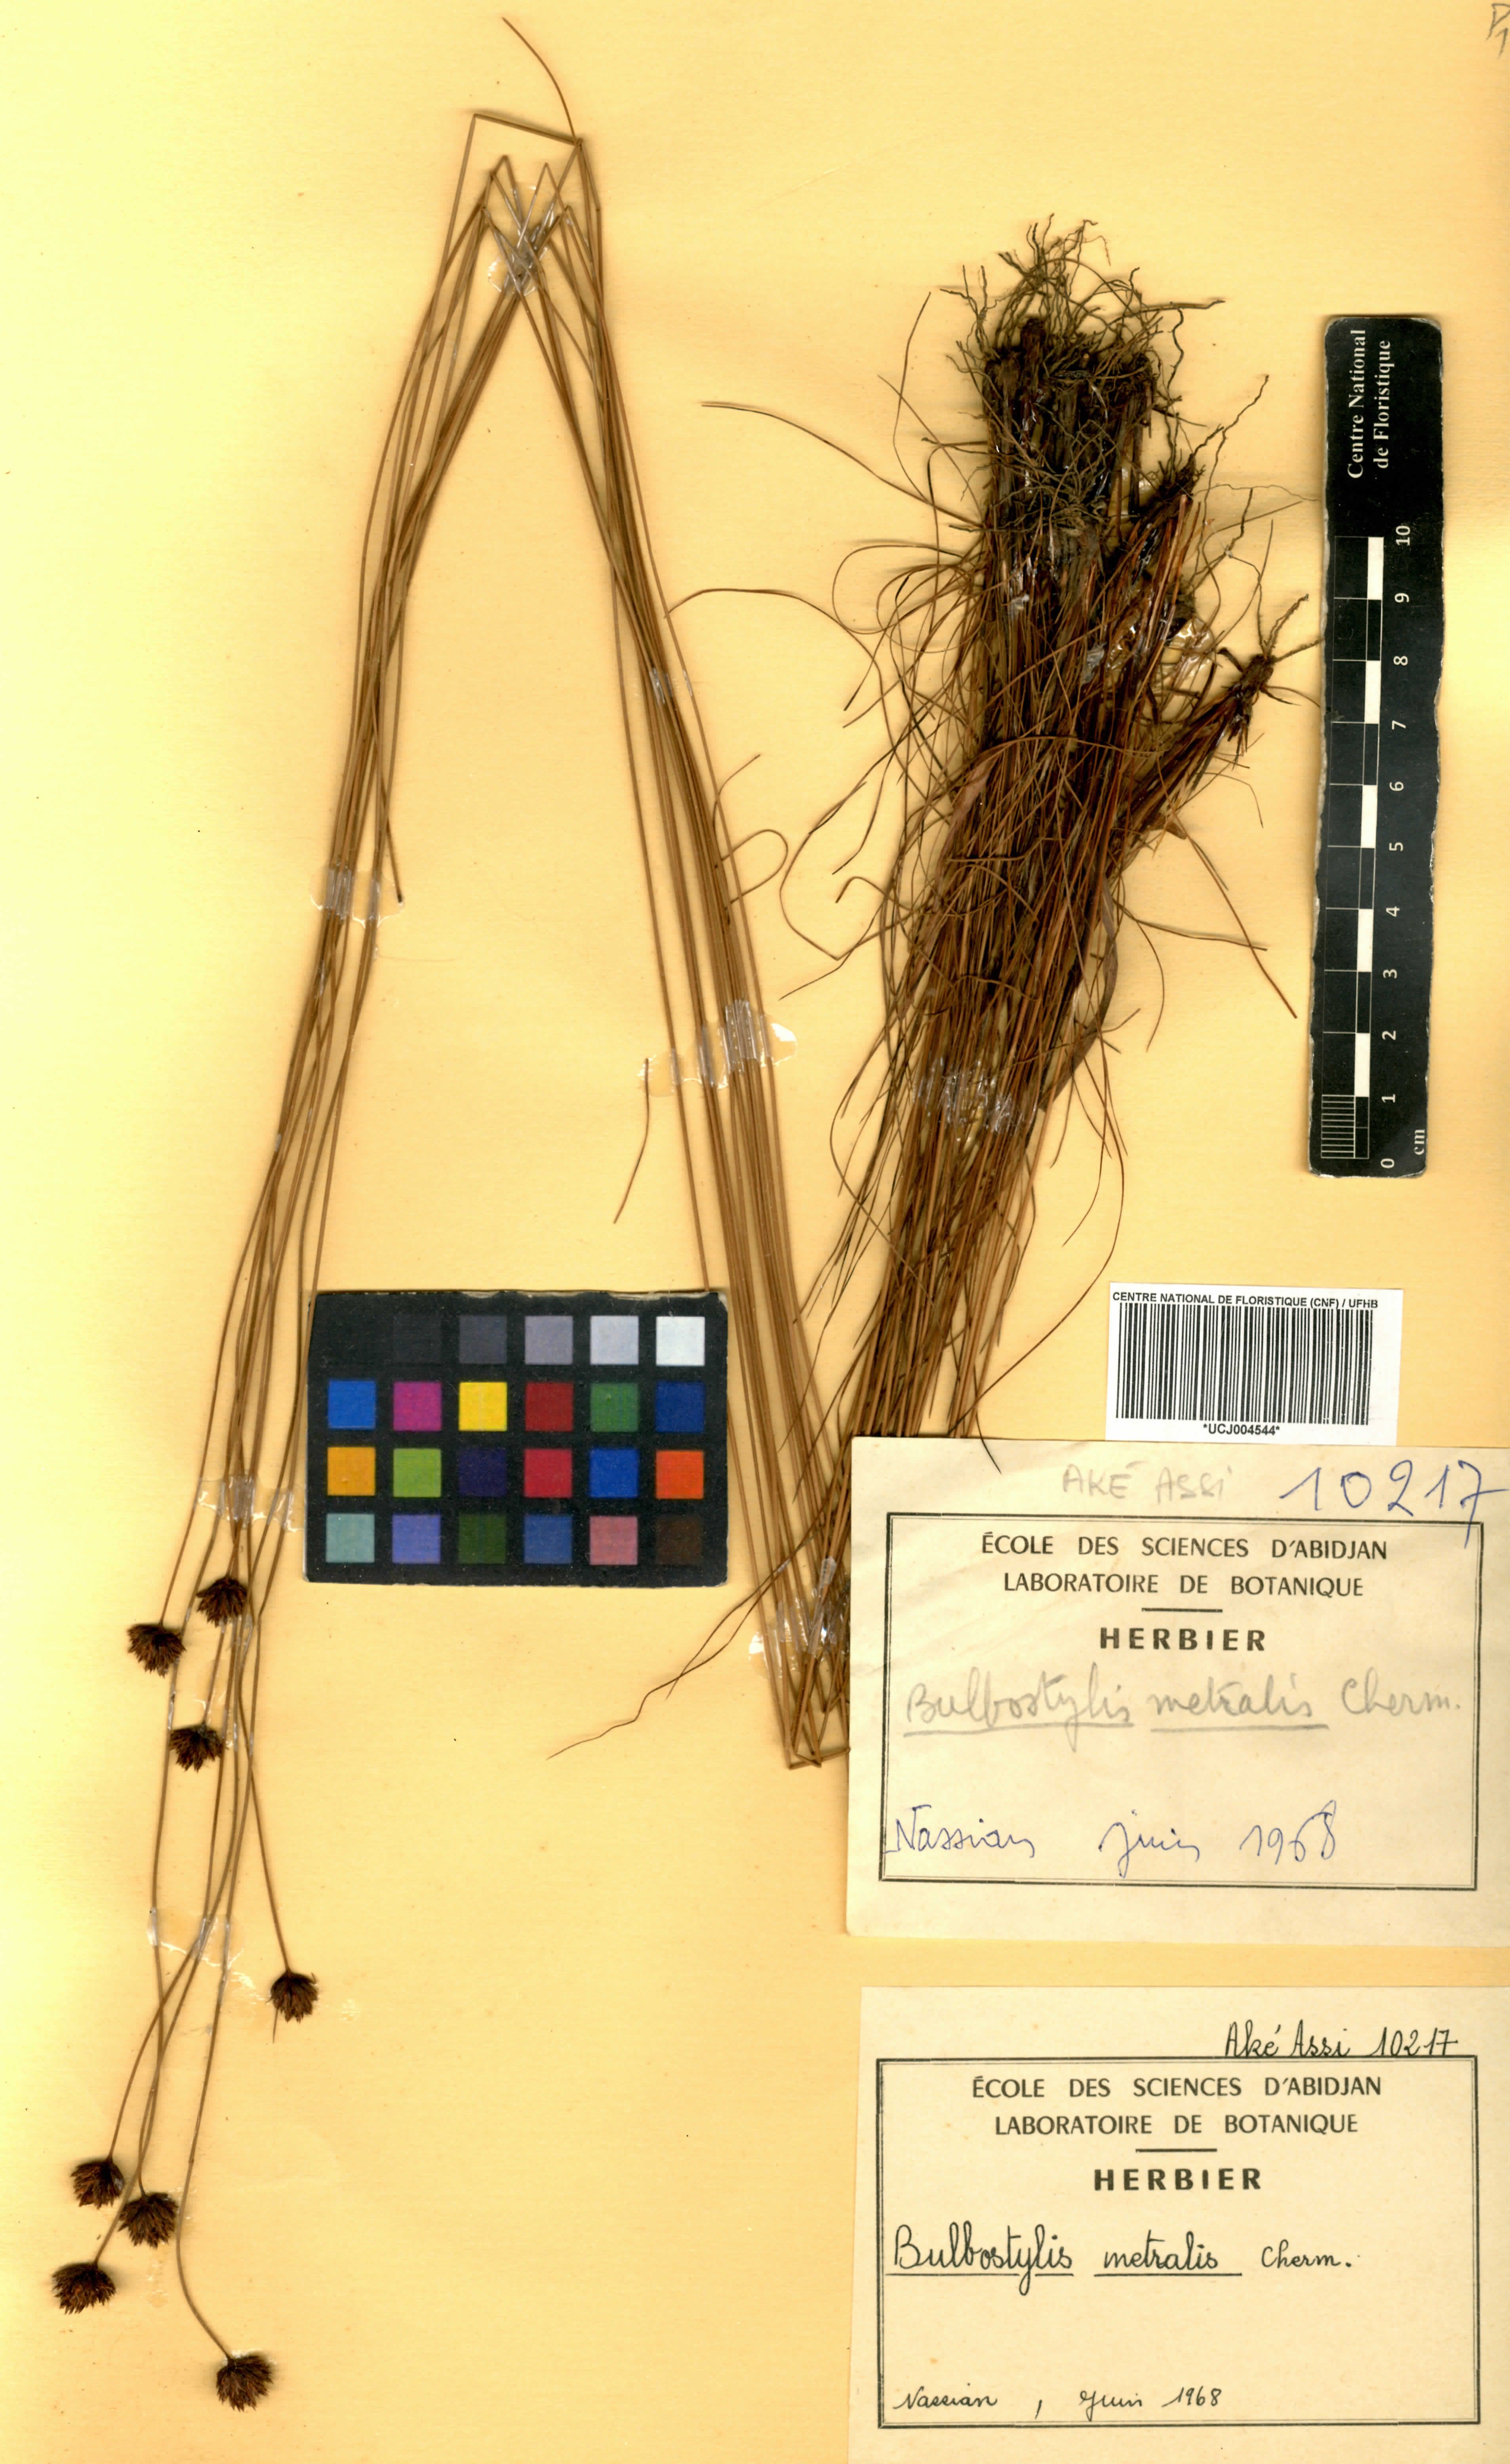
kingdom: Plantae
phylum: Tracheophyta
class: Liliopsida
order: Poales
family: Cyperaceae
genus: Bulbostylis
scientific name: Bulbostylis filamentosa
